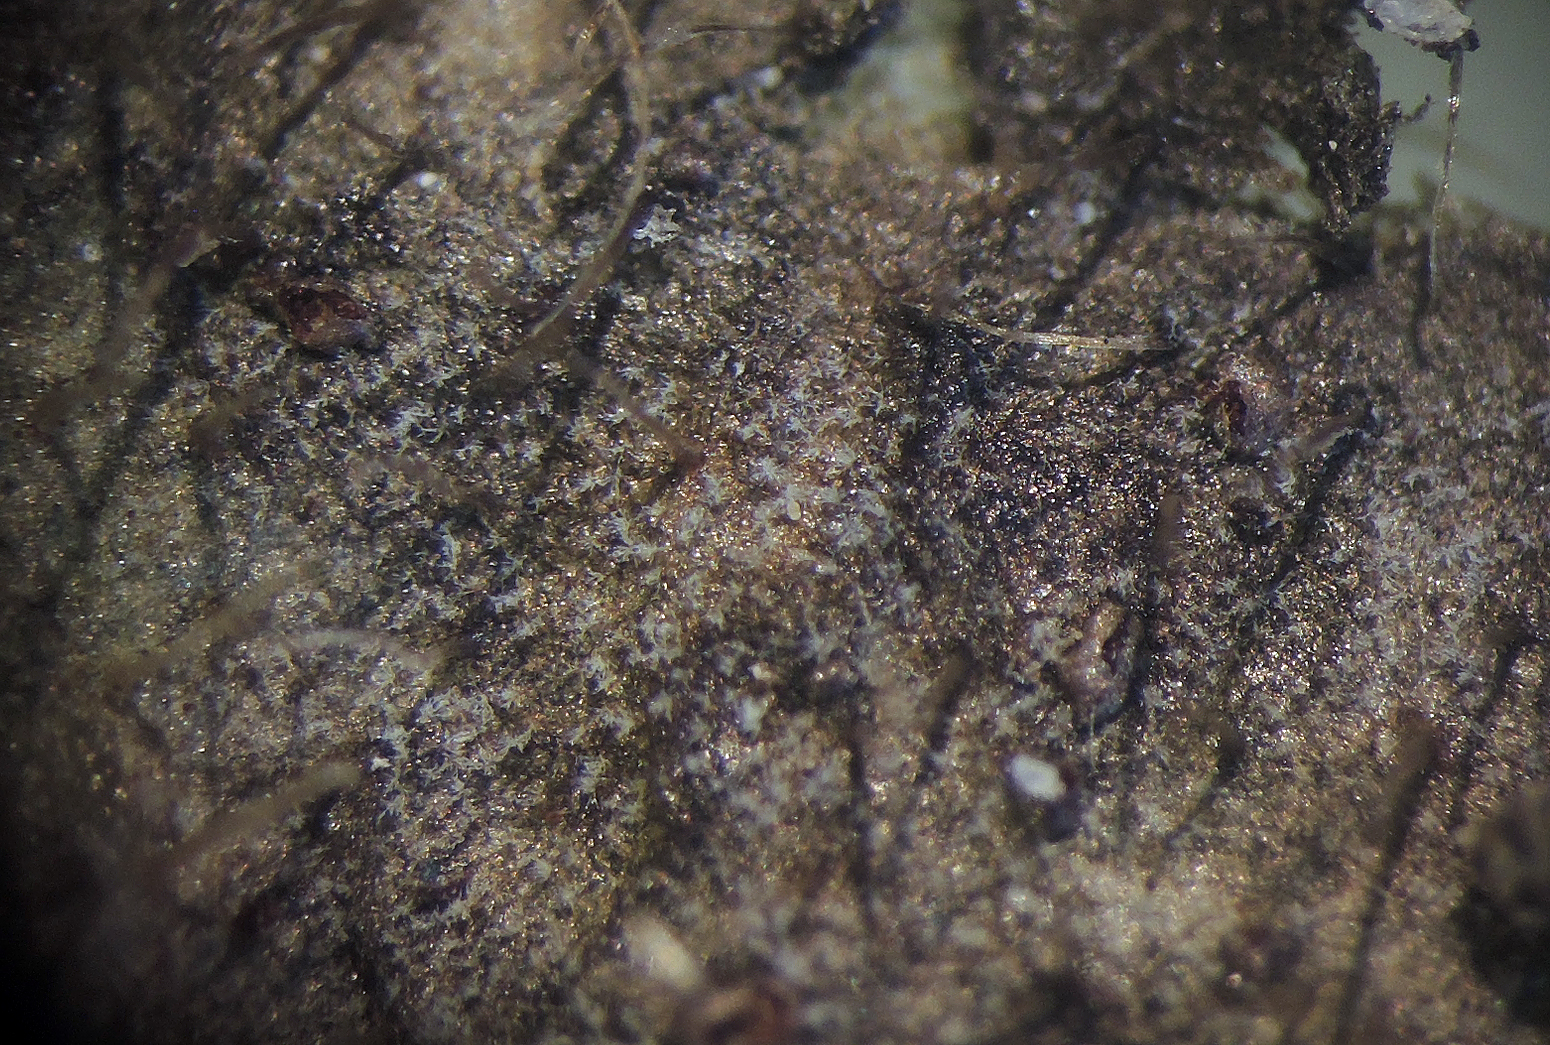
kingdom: Fungi
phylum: Ascomycota
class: Dothideomycetes
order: Mycosphaerellales
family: Mycosphaerellaceae
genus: Ramularia
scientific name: Ramularia inaequalis
